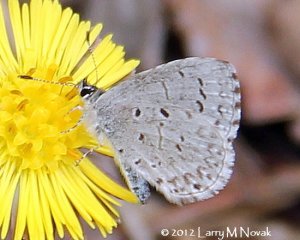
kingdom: Animalia
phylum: Arthropoda
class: Insecta
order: Lepidoptera
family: Lycaenidae
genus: Celastrina
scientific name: Celastrina lucia
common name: Northern Spring Azure
